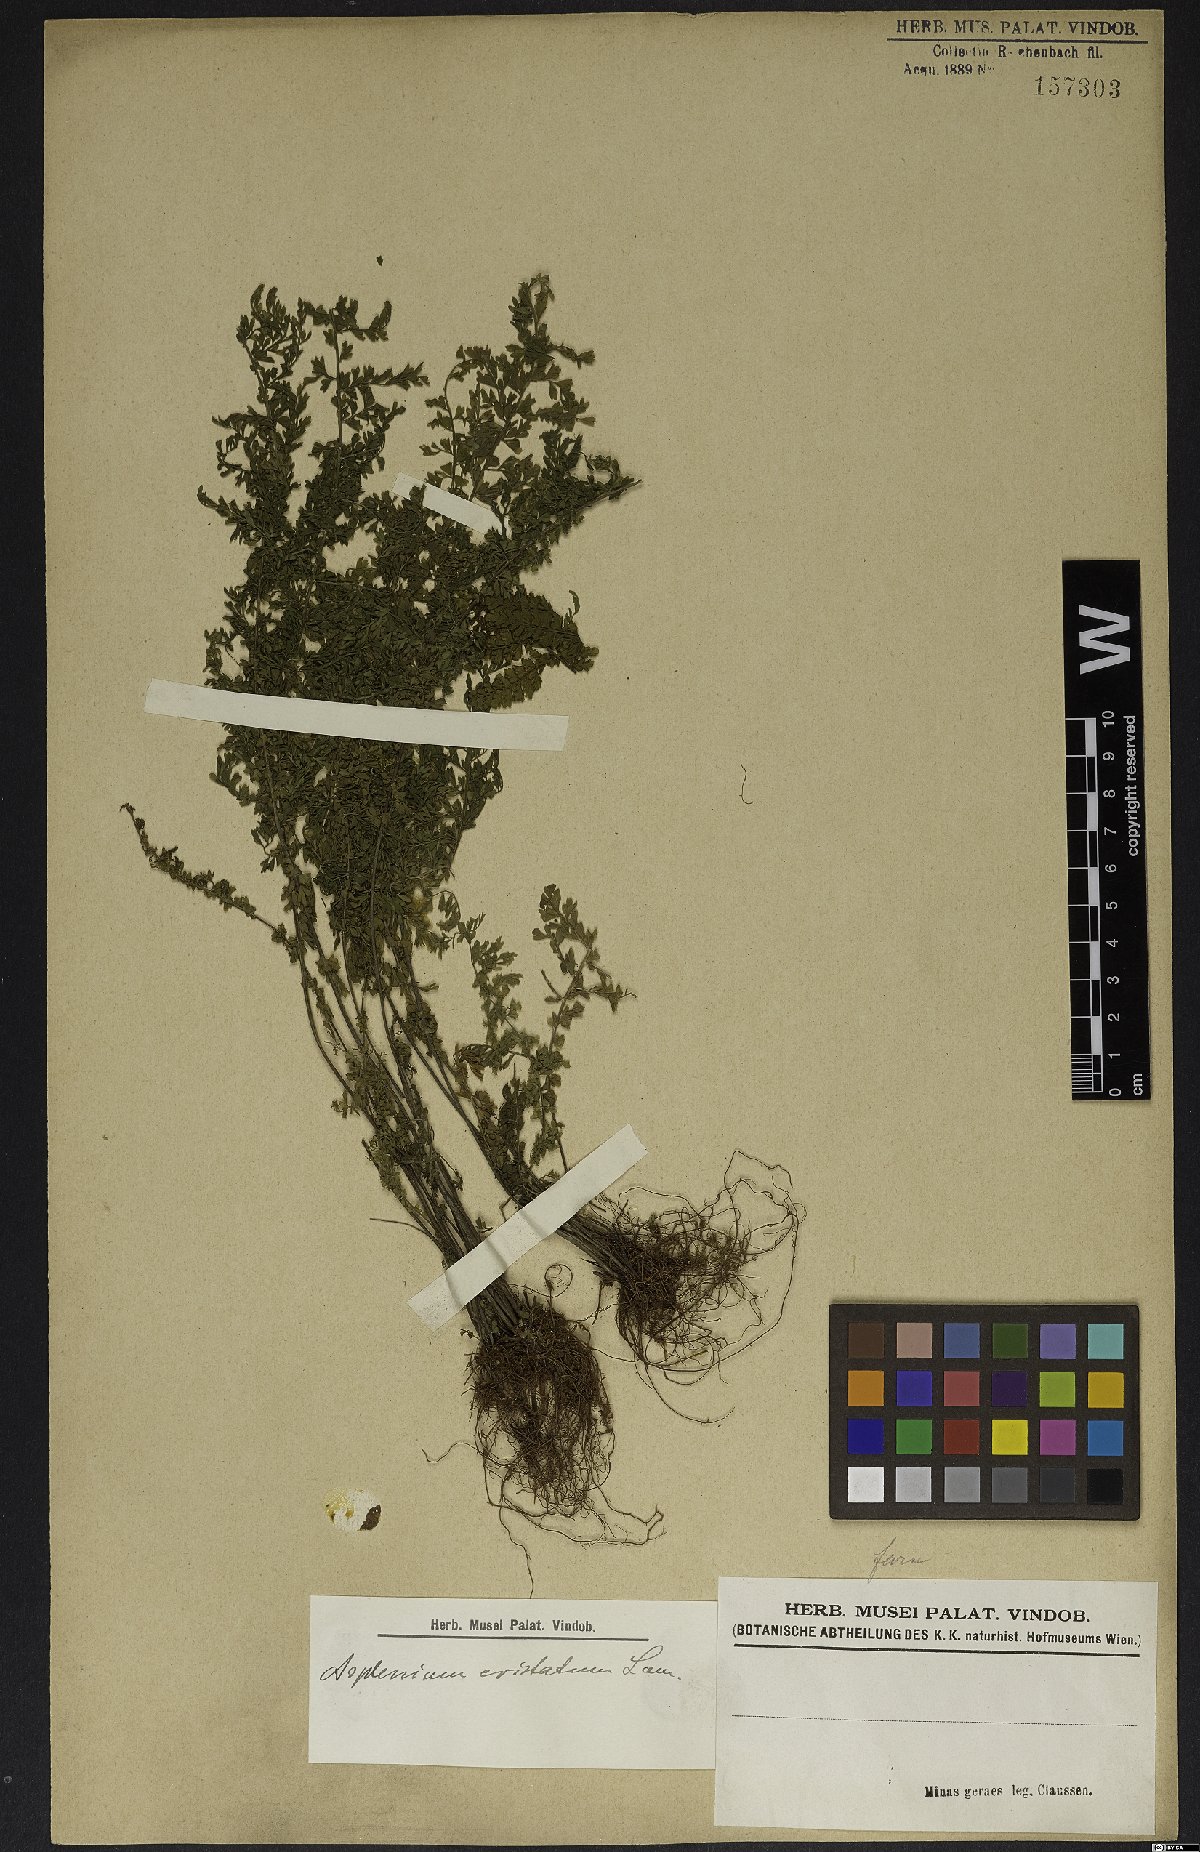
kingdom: Plantae
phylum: Tracheophyta
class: Polypodiopsida
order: Polypodiales
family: Aspleniaceae
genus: Asplenium
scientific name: Asplenium cristatum
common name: Parsley spleenwort
